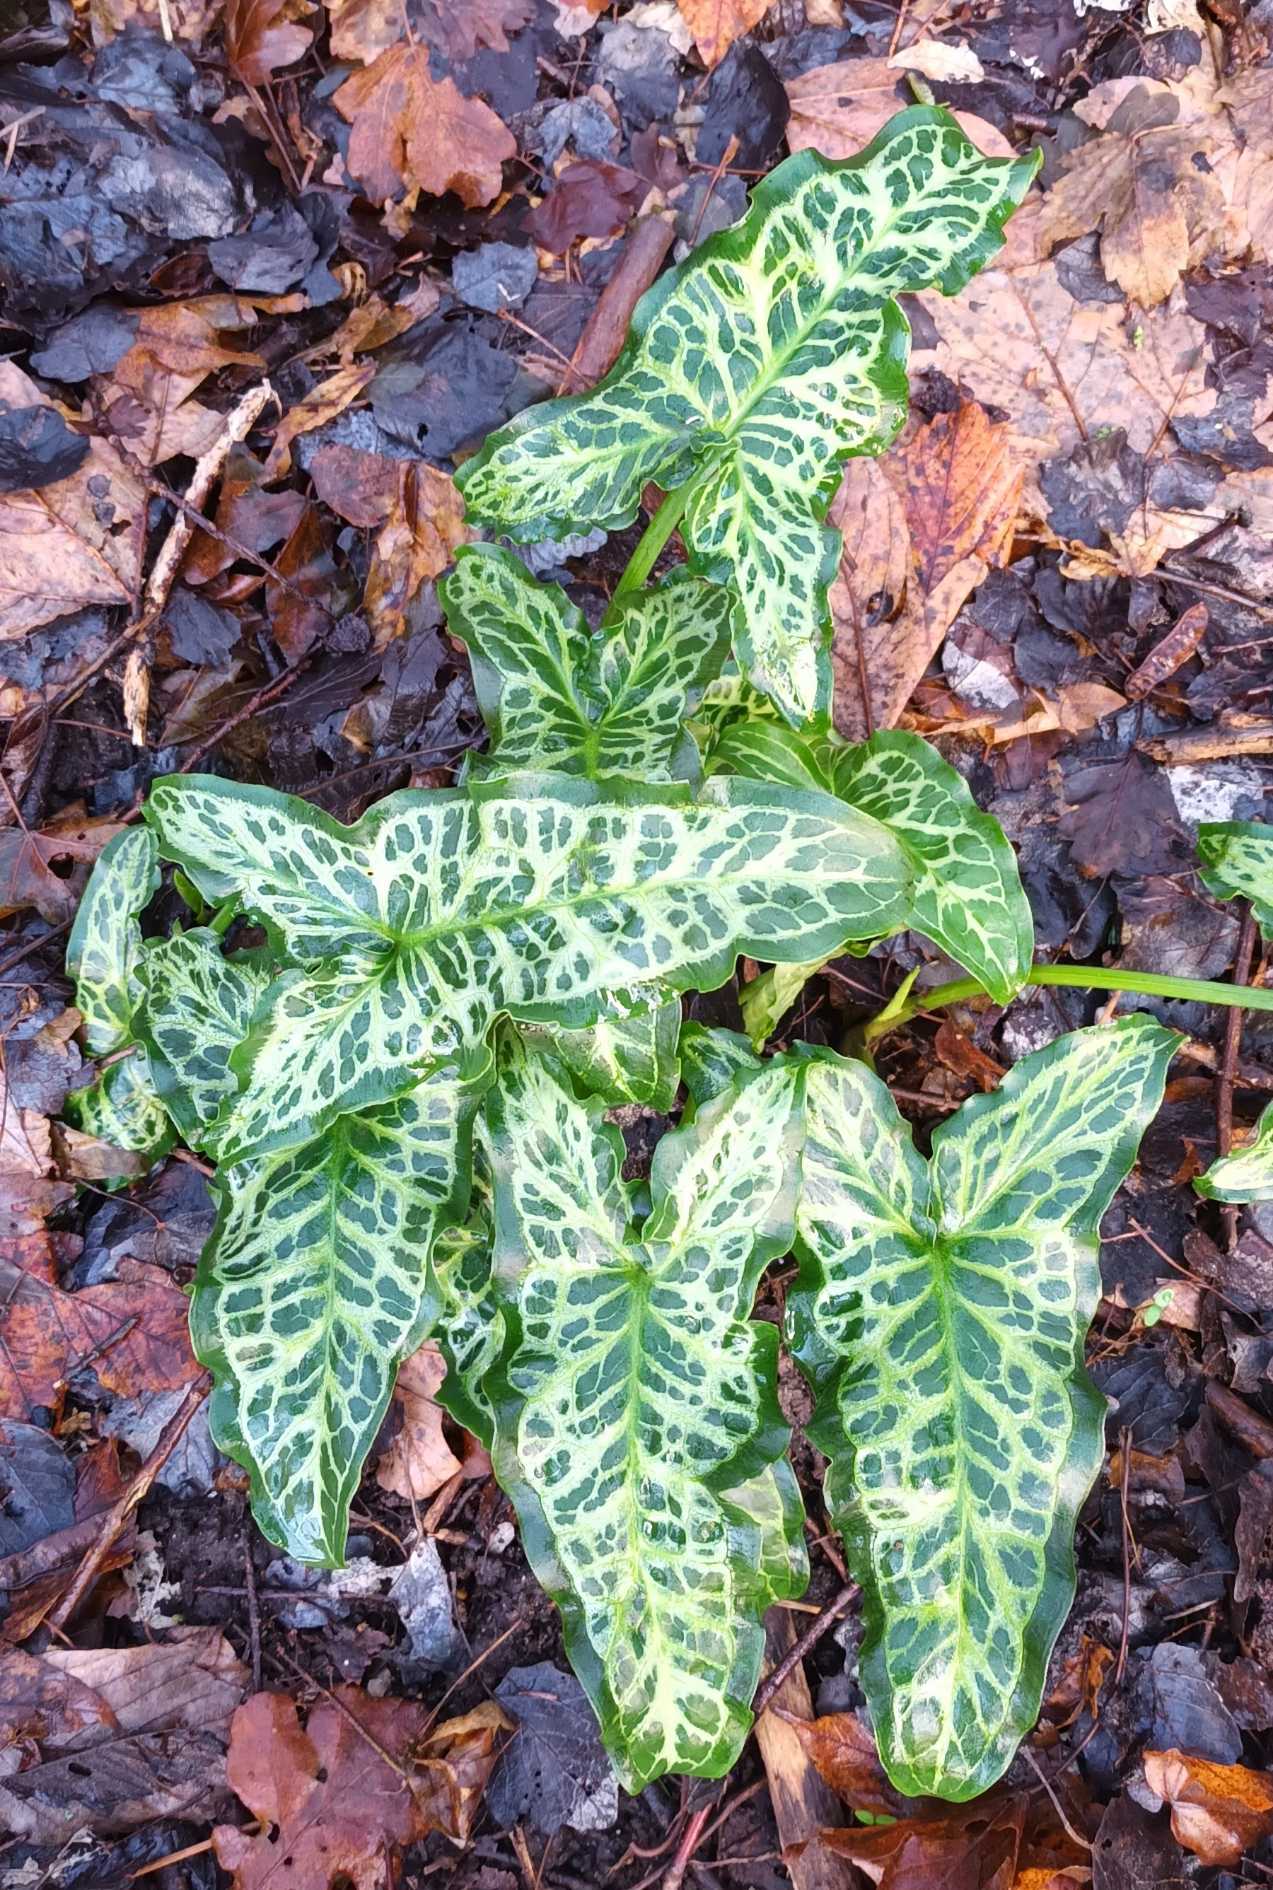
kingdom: Plantae
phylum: Tracheophyta
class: Liliopsida
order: Alismatales
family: Araceae
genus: Arum
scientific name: Arum italicum
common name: Italiensk arum
